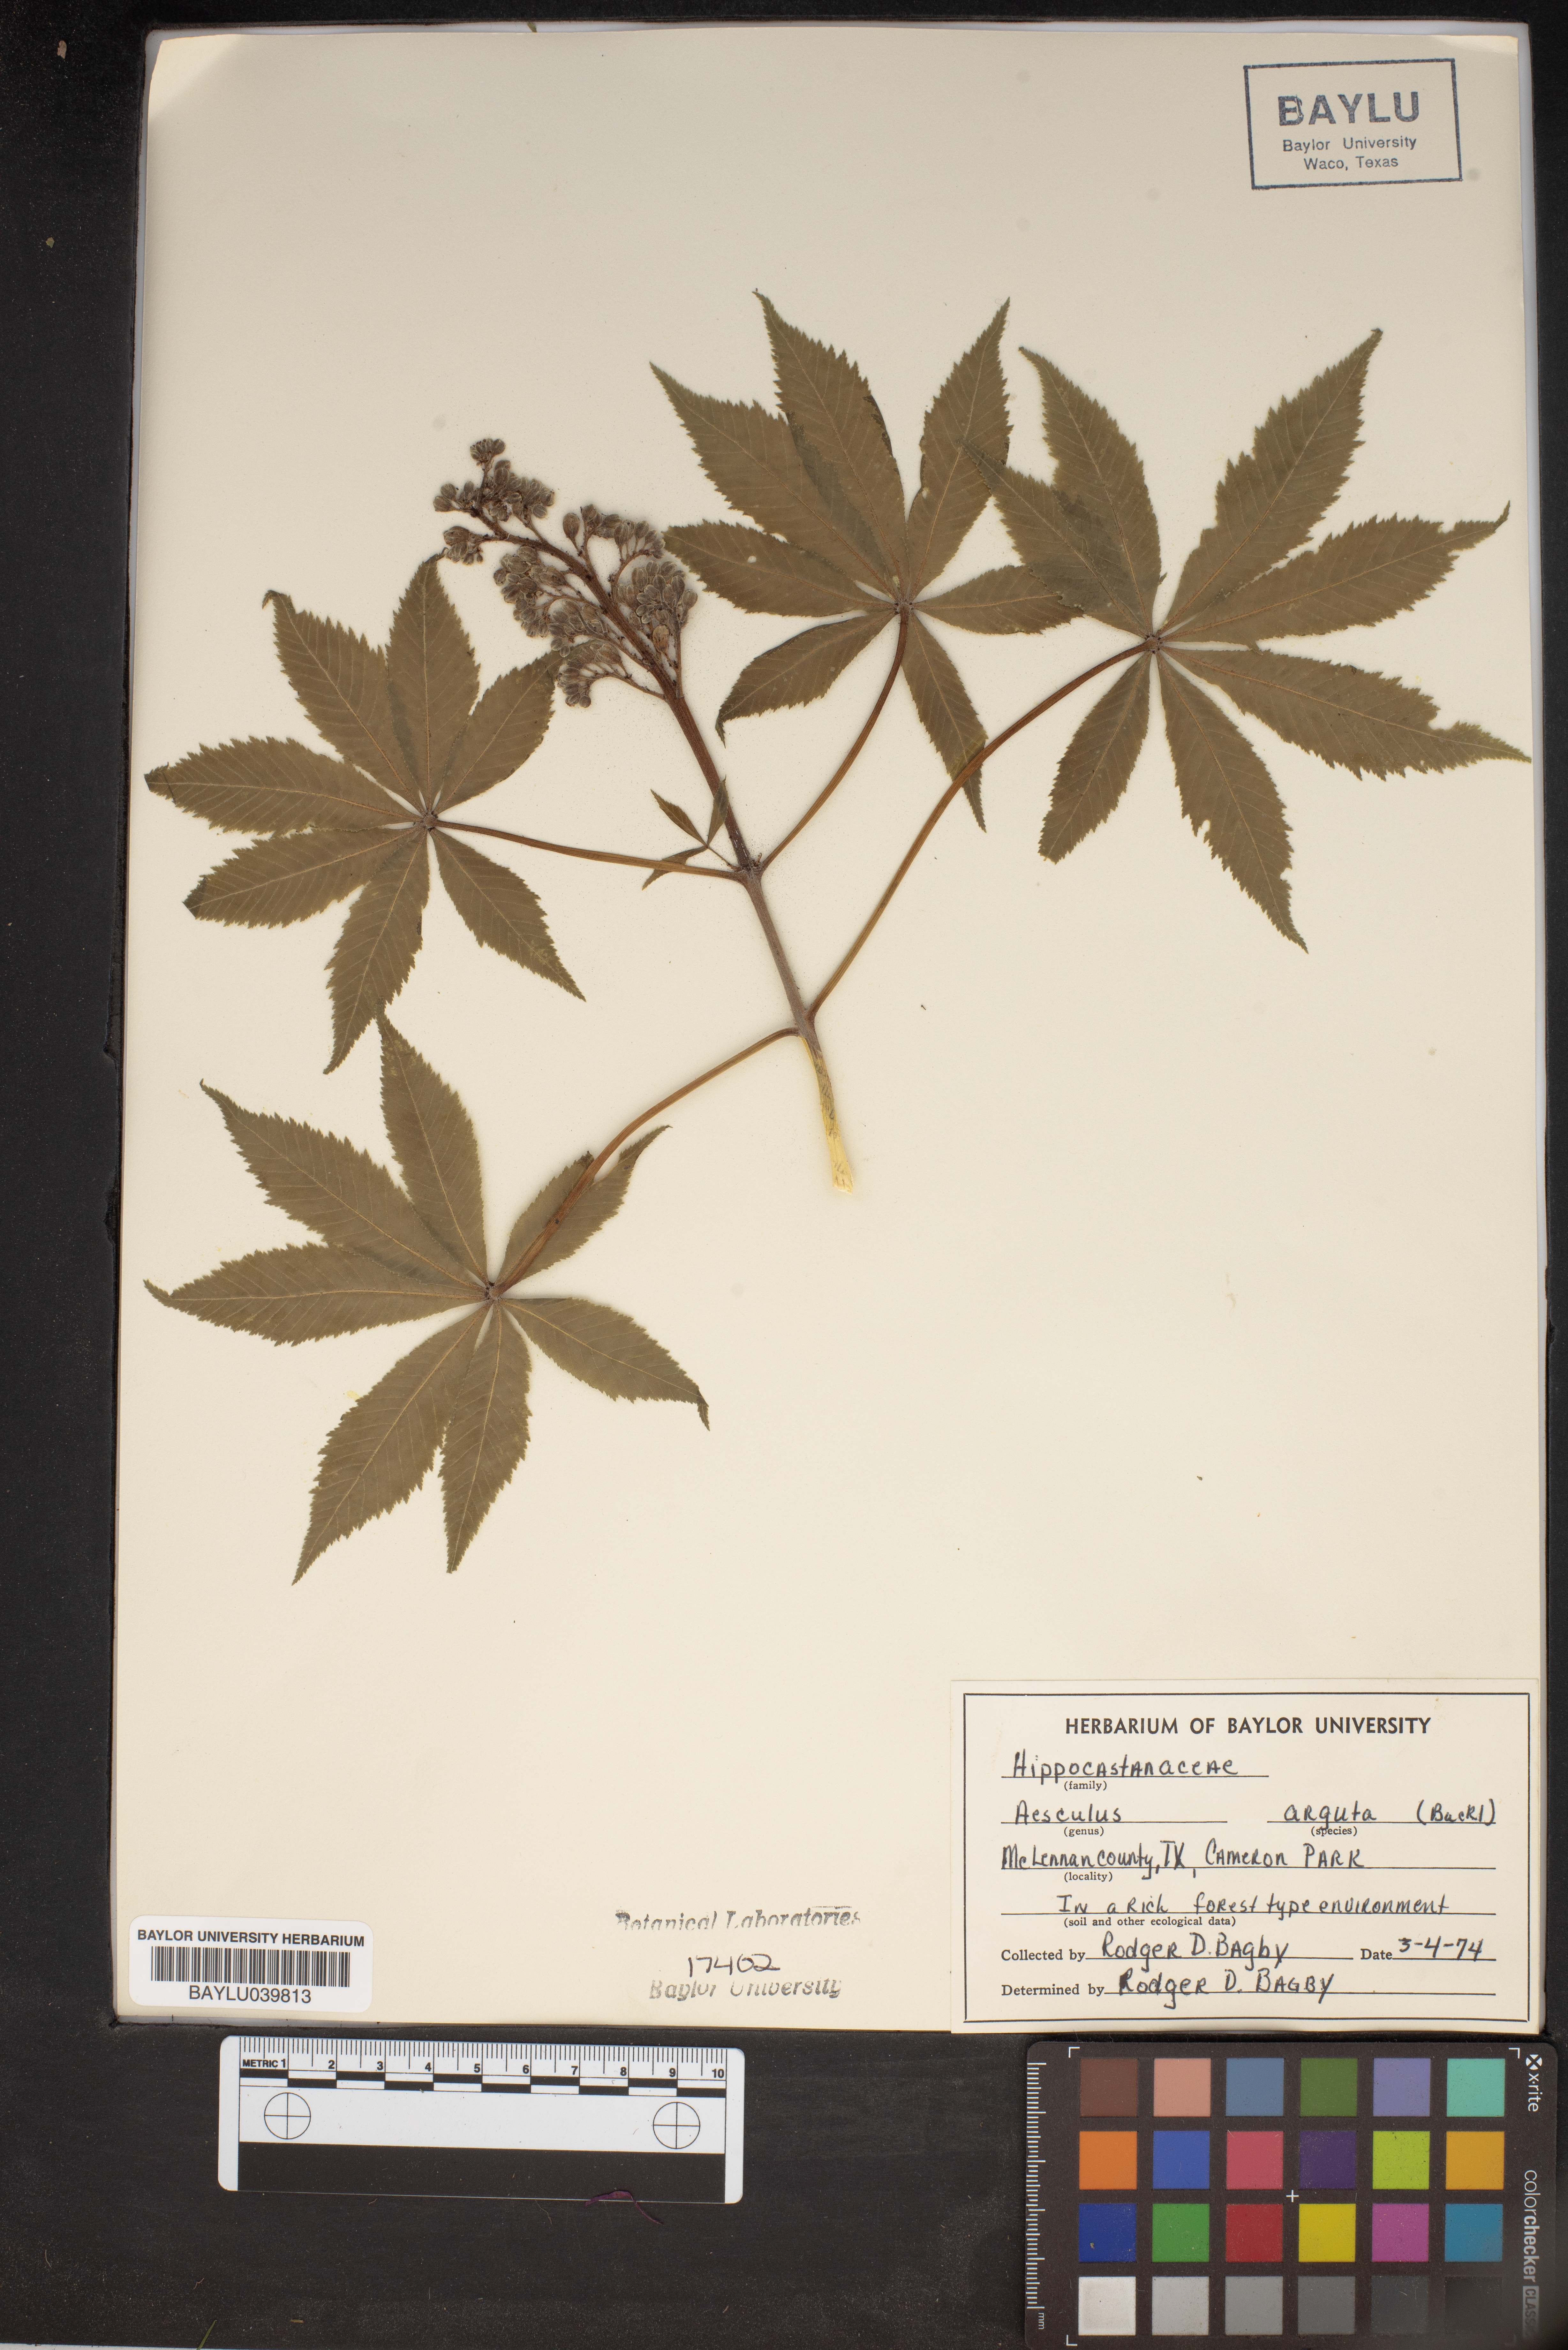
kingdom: Plantae
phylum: Tracheophyta
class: Magnoliopsida
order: Sapindales
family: Sapindaceae
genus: Aesculus
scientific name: Aesculus glabra
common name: Ohio buckeye
